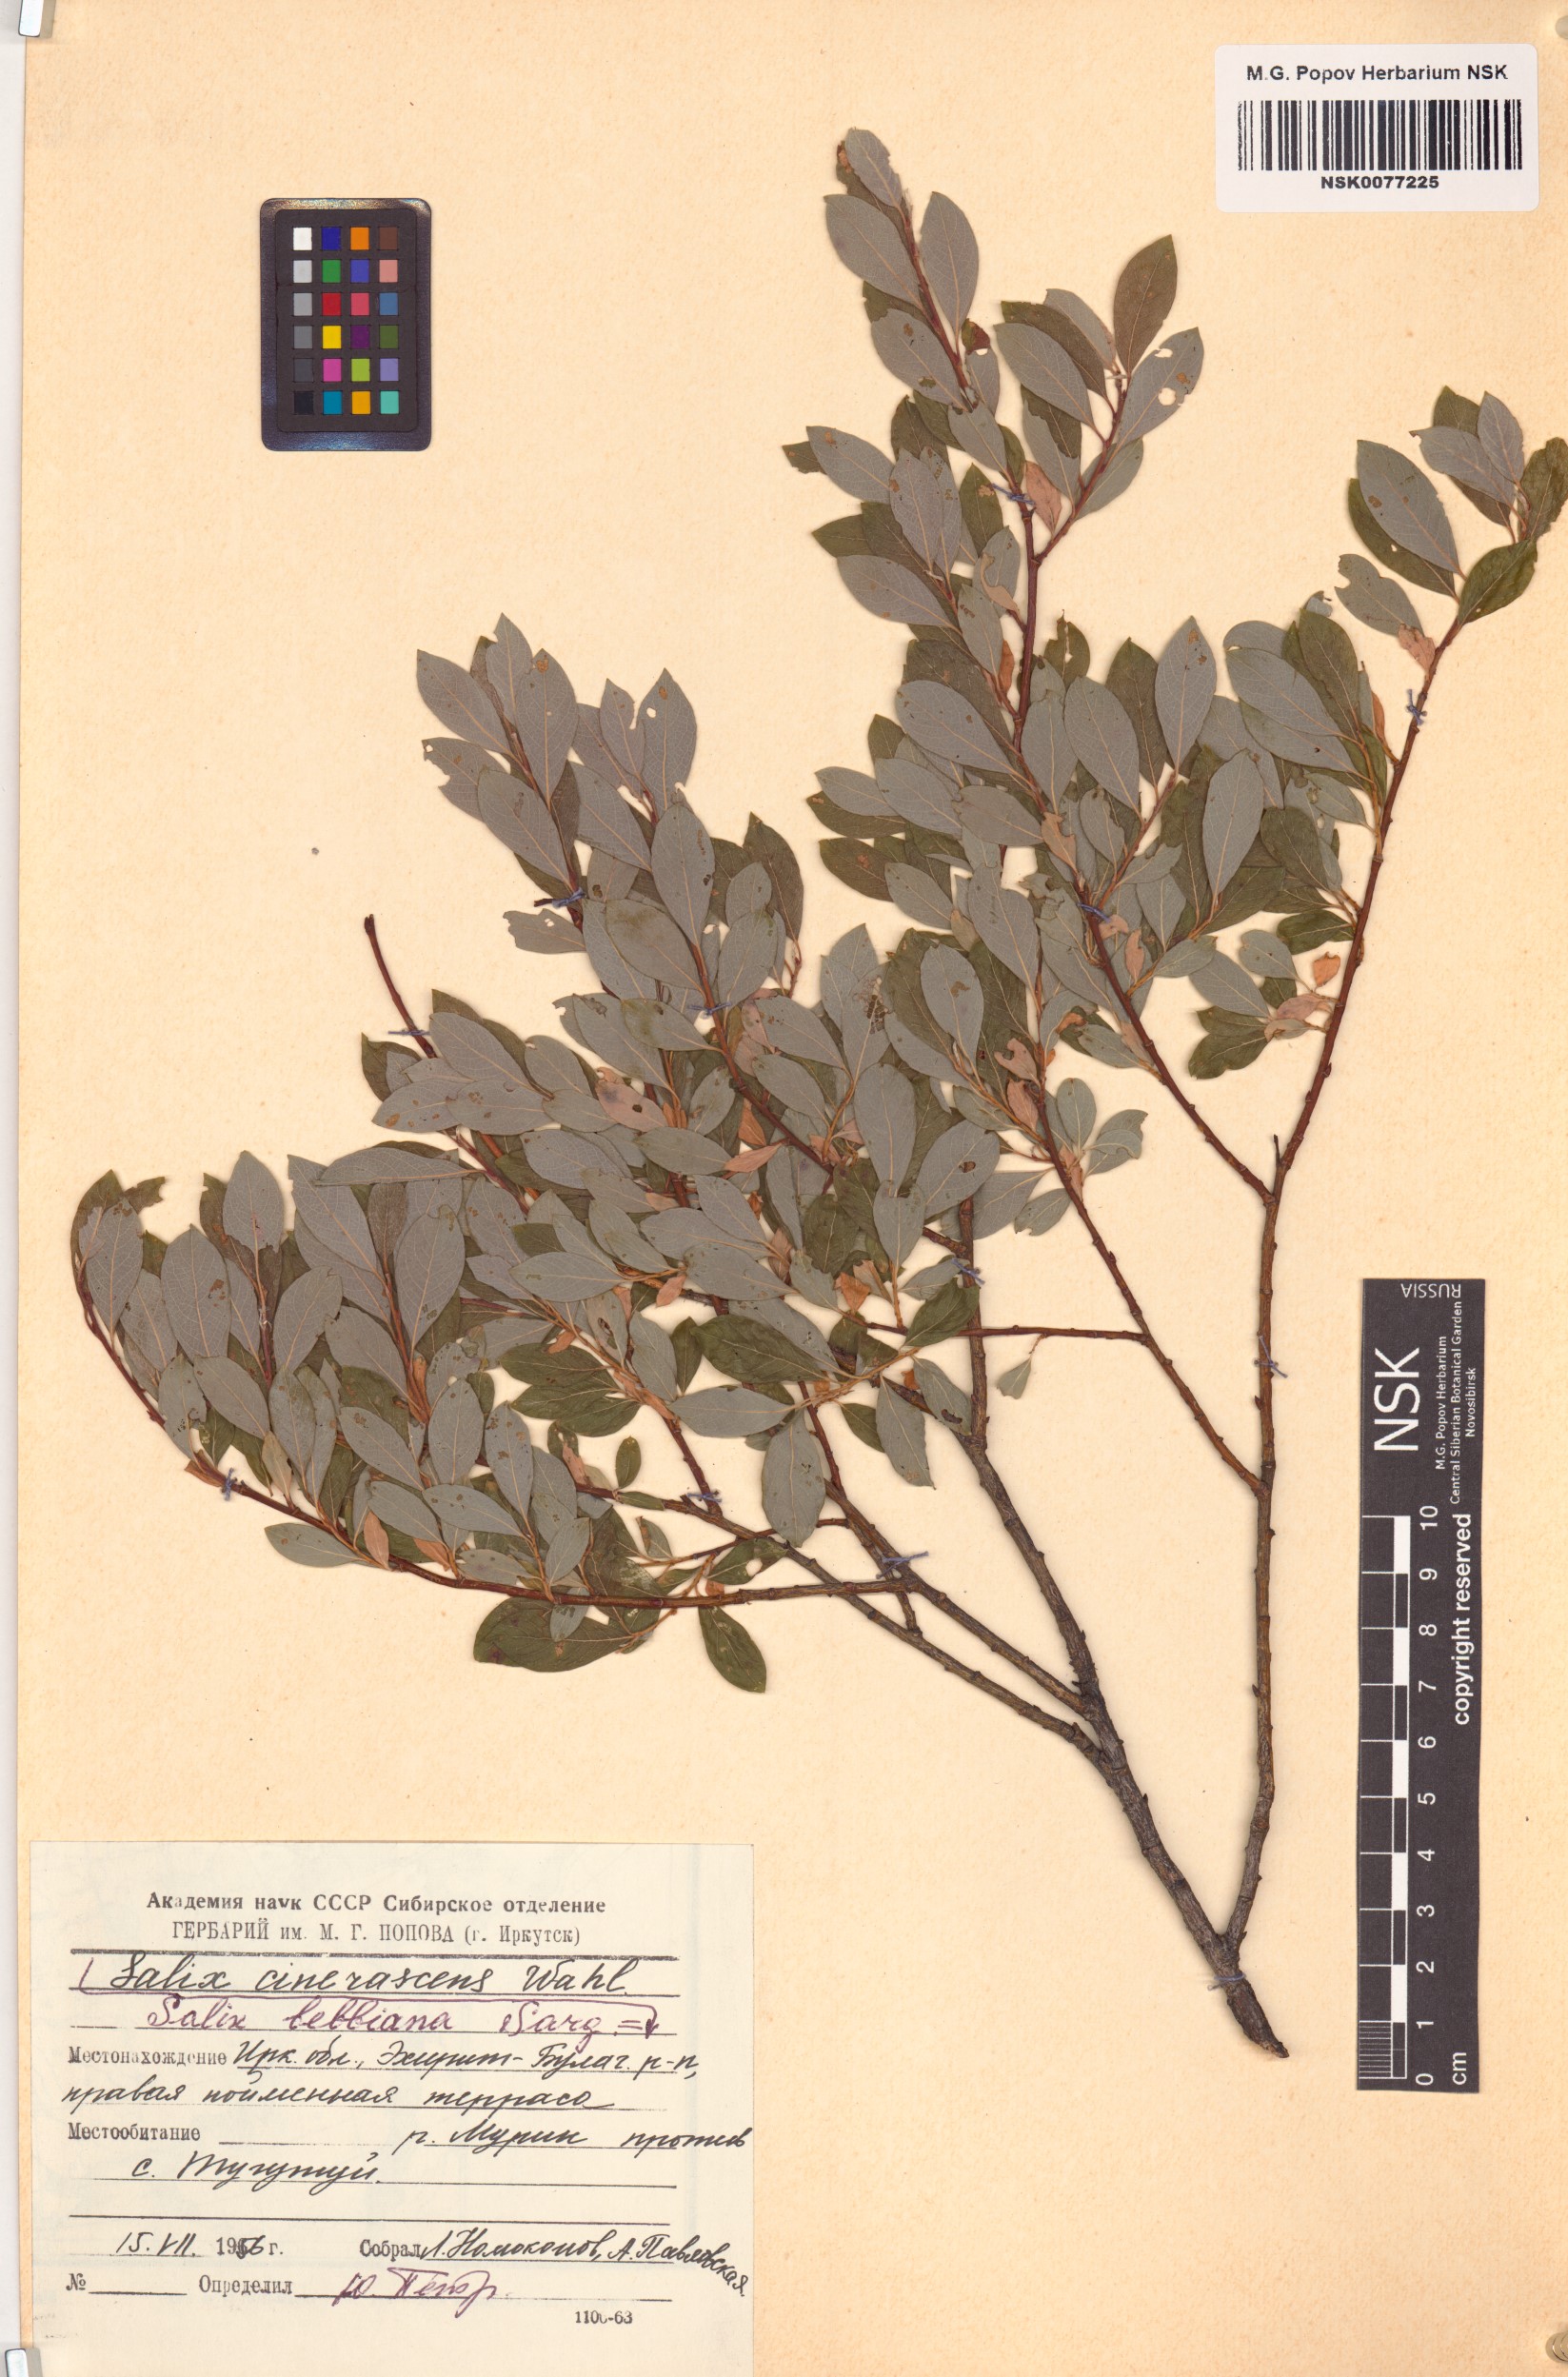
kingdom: Plantae
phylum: Tracheophyta
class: Magnoliopsida
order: Malpighiales
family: Salicaceae
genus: Salix
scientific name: Salix bebbiana
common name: Bebb's willow
